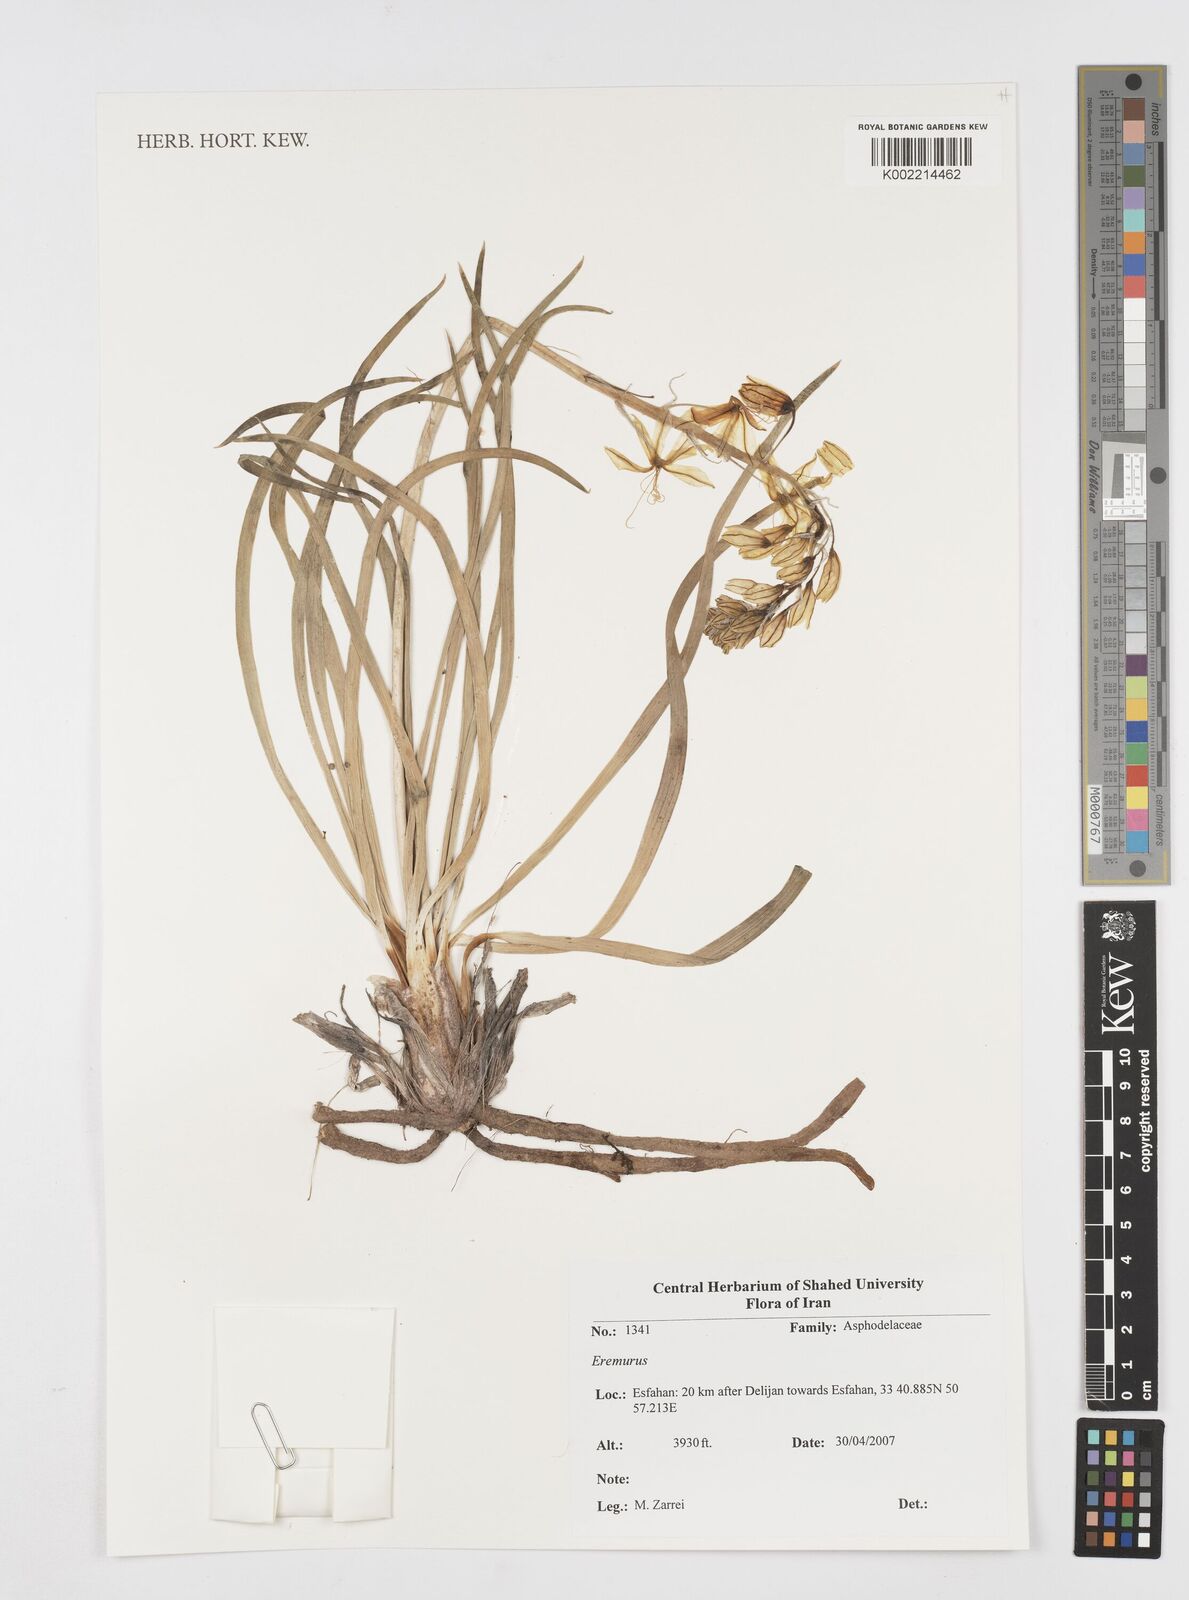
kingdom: Plantae
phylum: Tracheophyta
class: Liliopsida
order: Asparagales
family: Asphodelaceae
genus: Eremurus
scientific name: Eremurus
